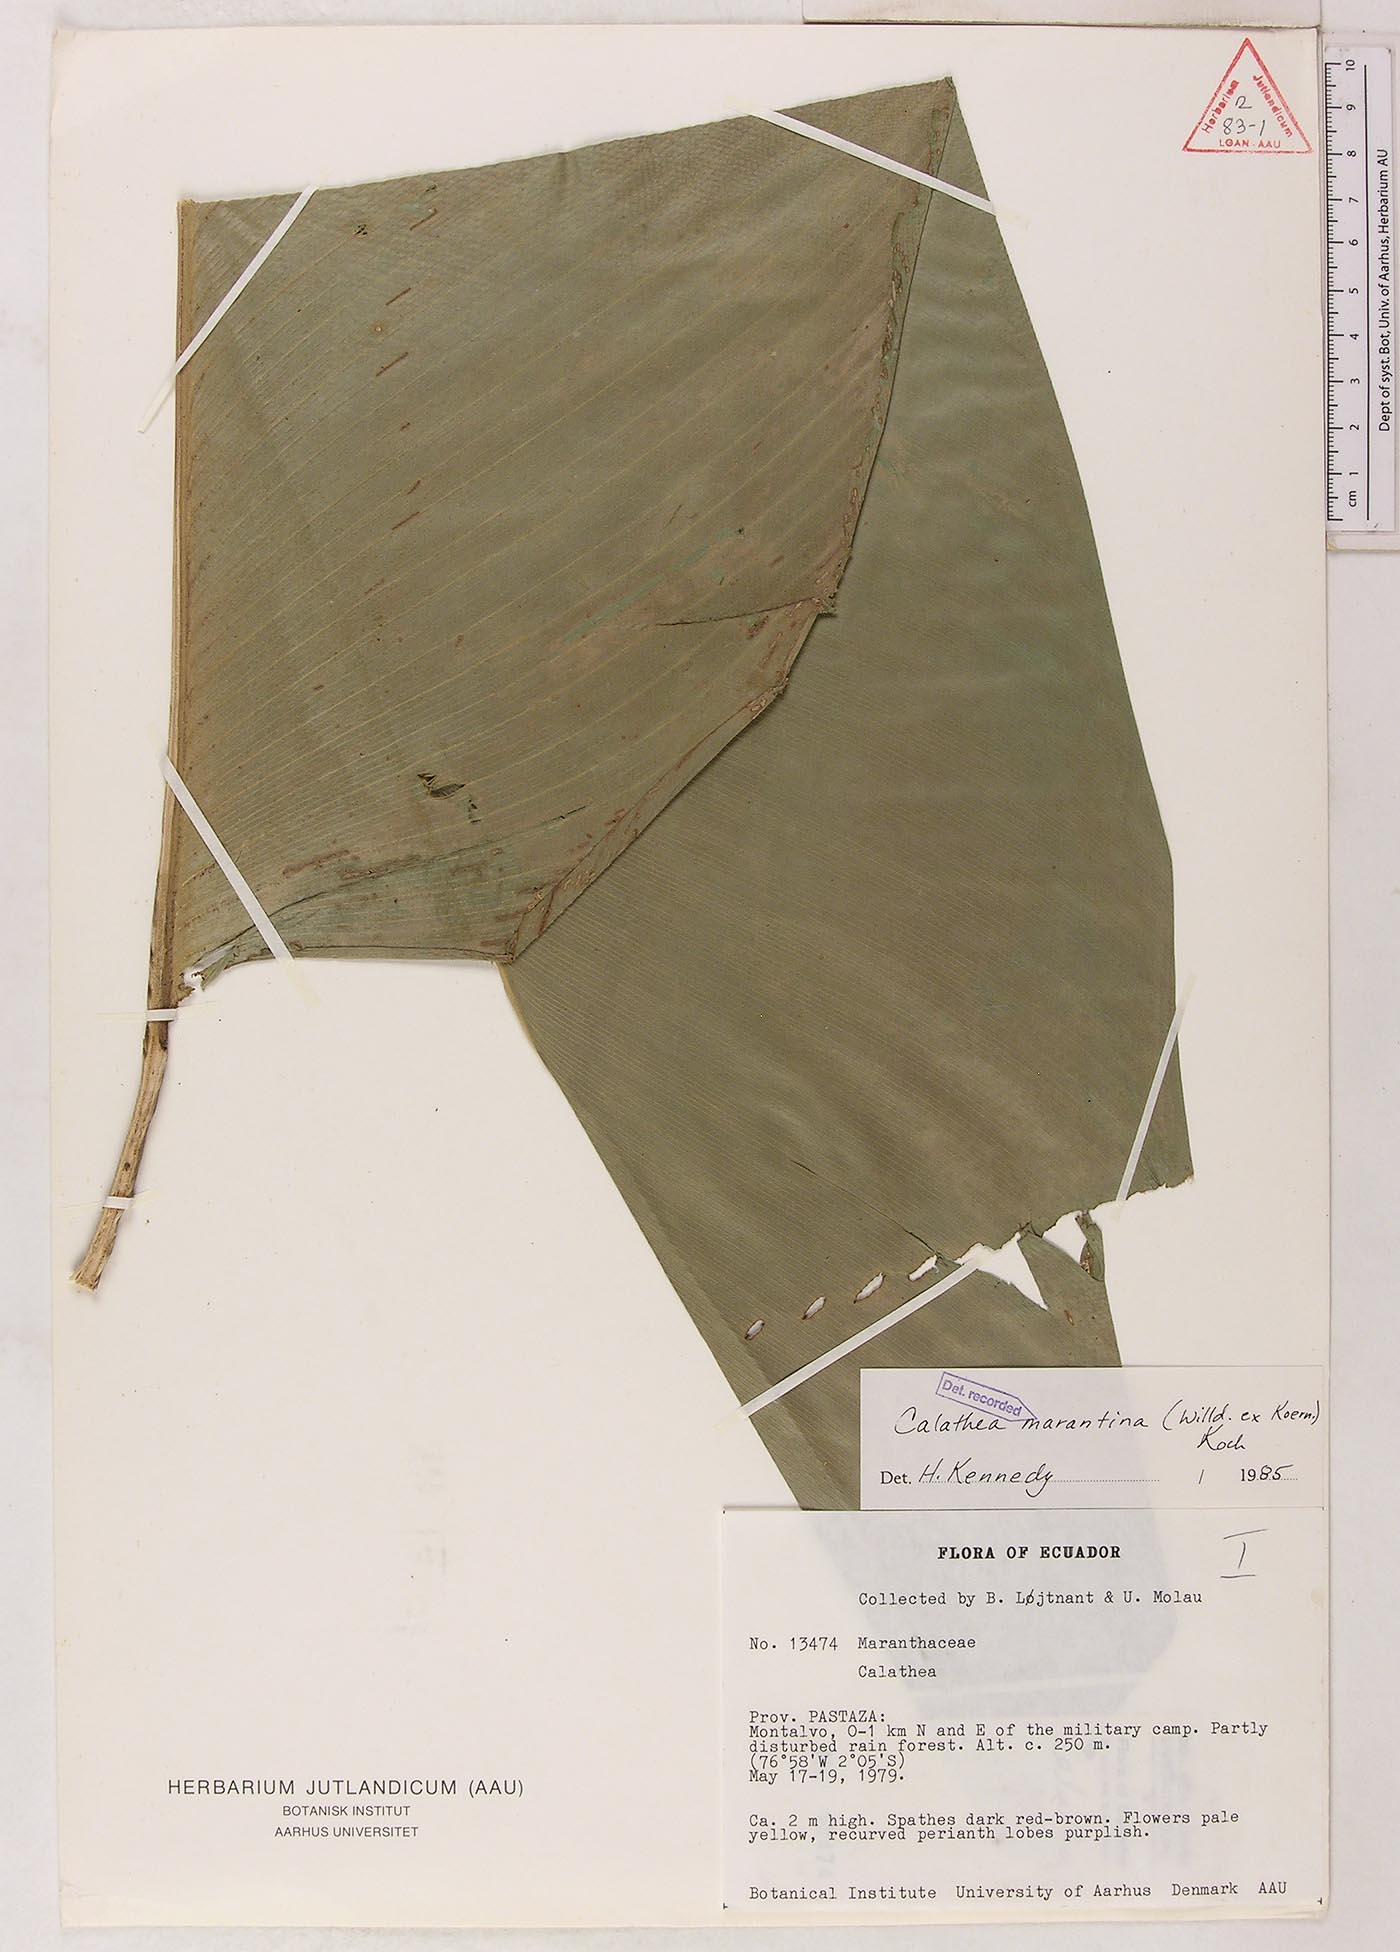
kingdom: Plantae
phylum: Tracheophyta
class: Liliopsida
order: Zingiberales
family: Marantaceae
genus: Calathea
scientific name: Calathea marantina
